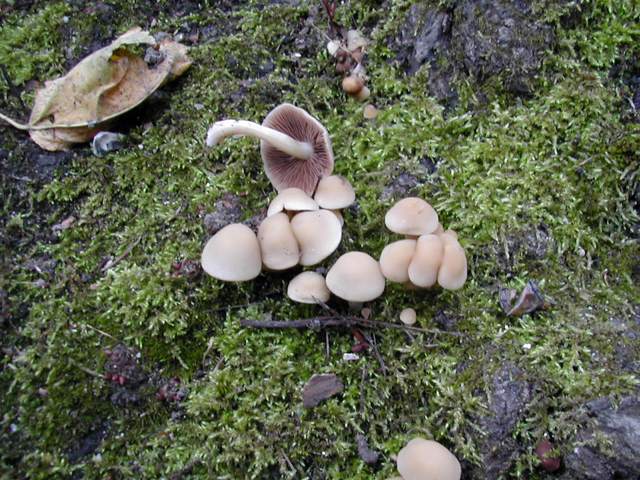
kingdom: Fungi
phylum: Basidiomycota
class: Agaricomycetes
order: Agaricales
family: Psathyrellaceae
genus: Homophron
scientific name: Homophron cernuum
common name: hvidlig mørkhat
